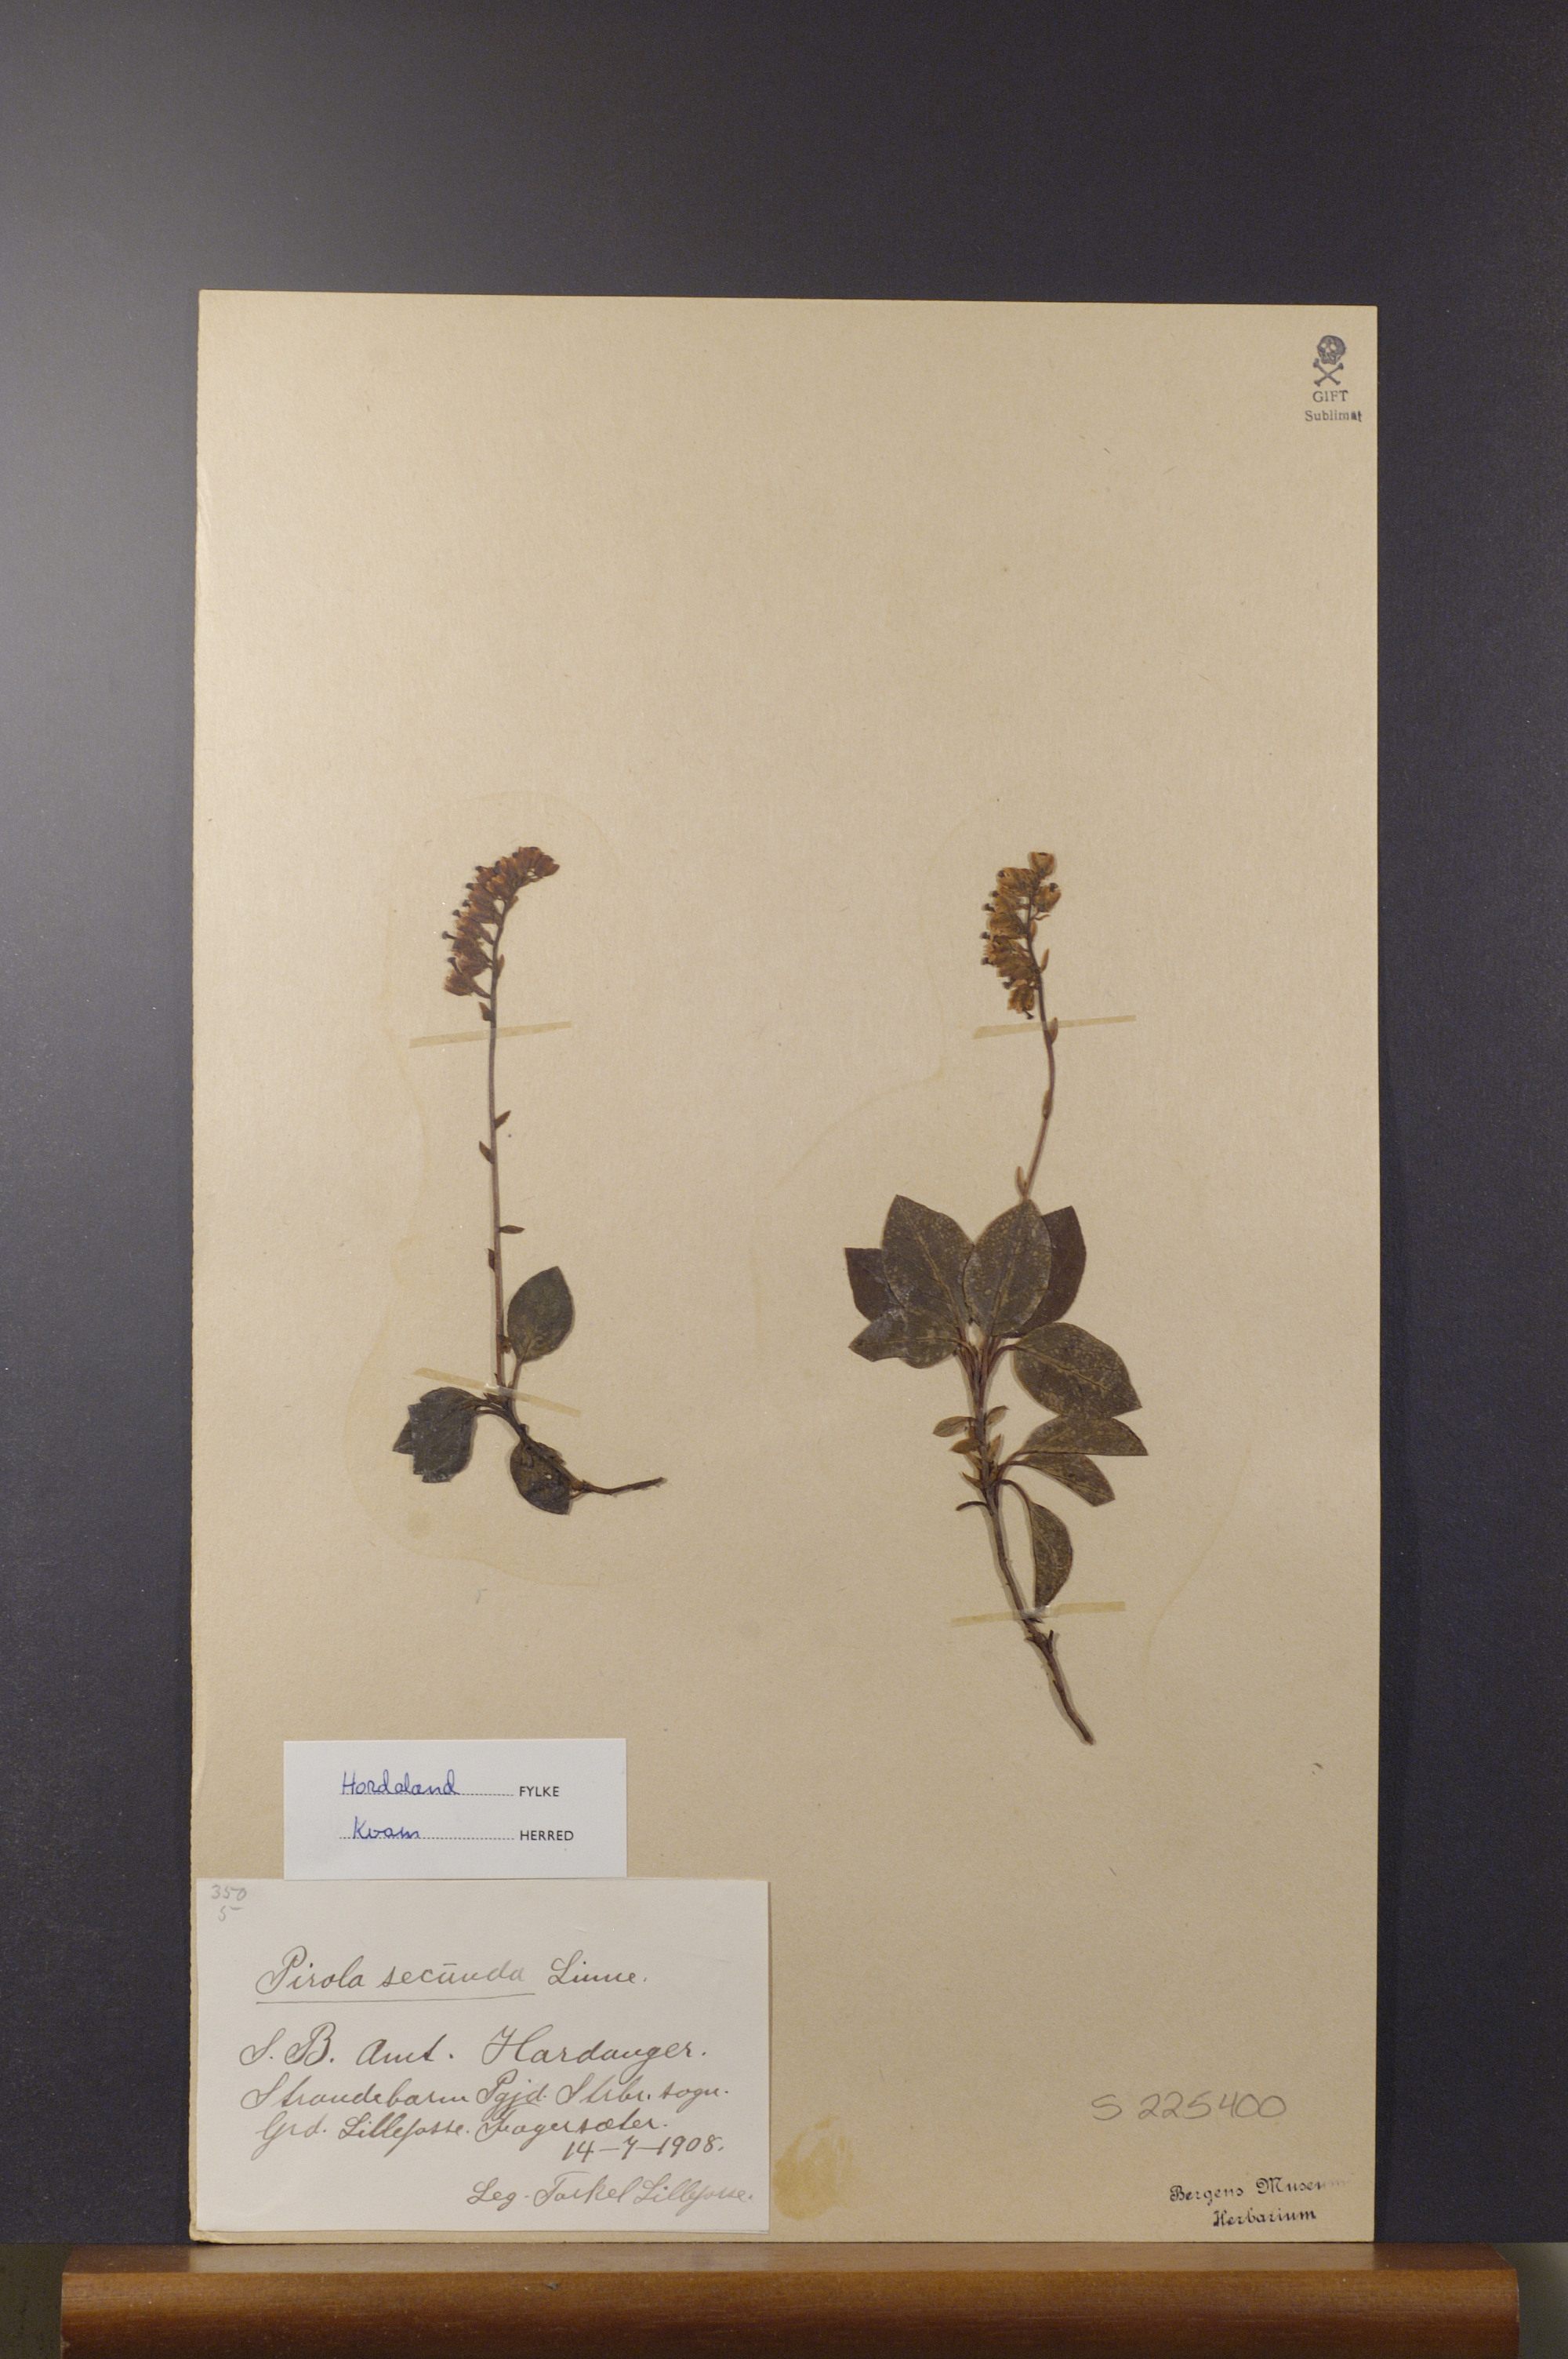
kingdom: Plantae
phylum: Tracheophyta
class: Magnoliopsida
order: Ericales
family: Ericaceae
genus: Orthilia
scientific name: Orthilia secunda
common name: One-sided orthilia
